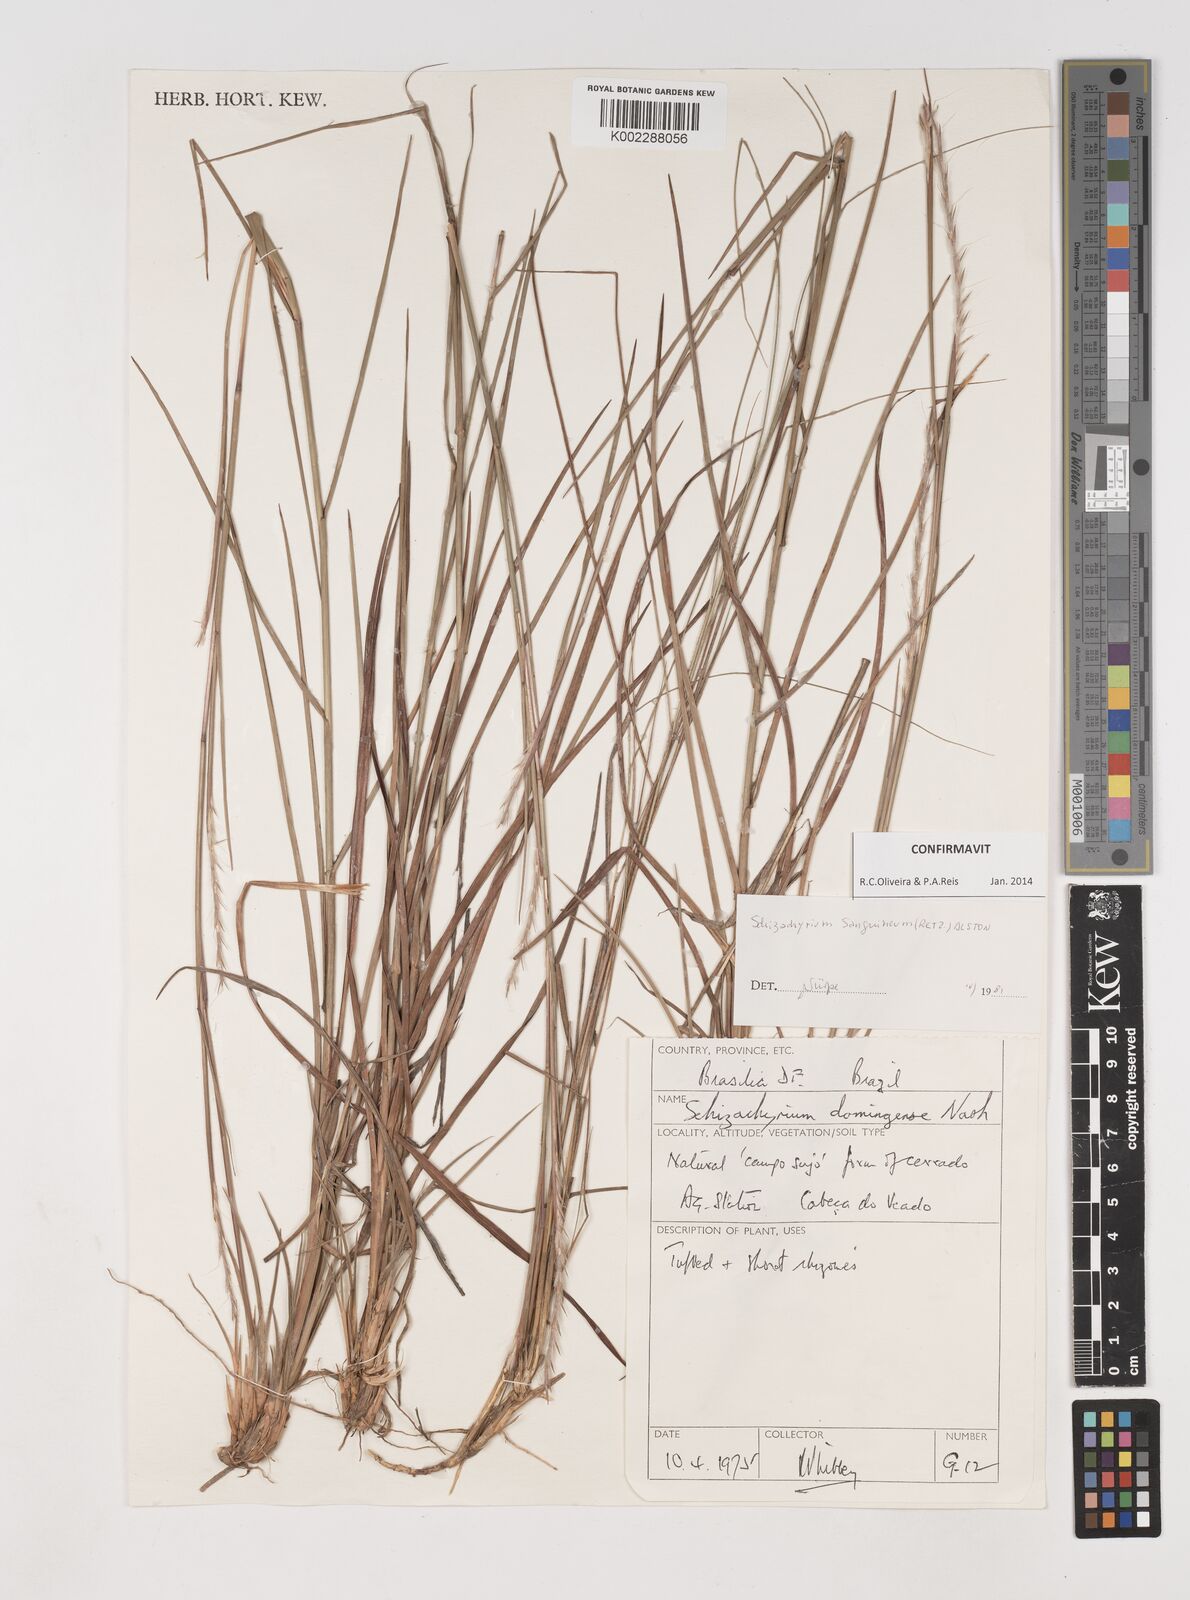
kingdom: Plantae
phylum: Tracheophyta
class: Liliopsida
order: Poales
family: Poaceae
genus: Schizachyrium
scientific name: Schizachyrium sanguineum
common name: Crimson bluestem
